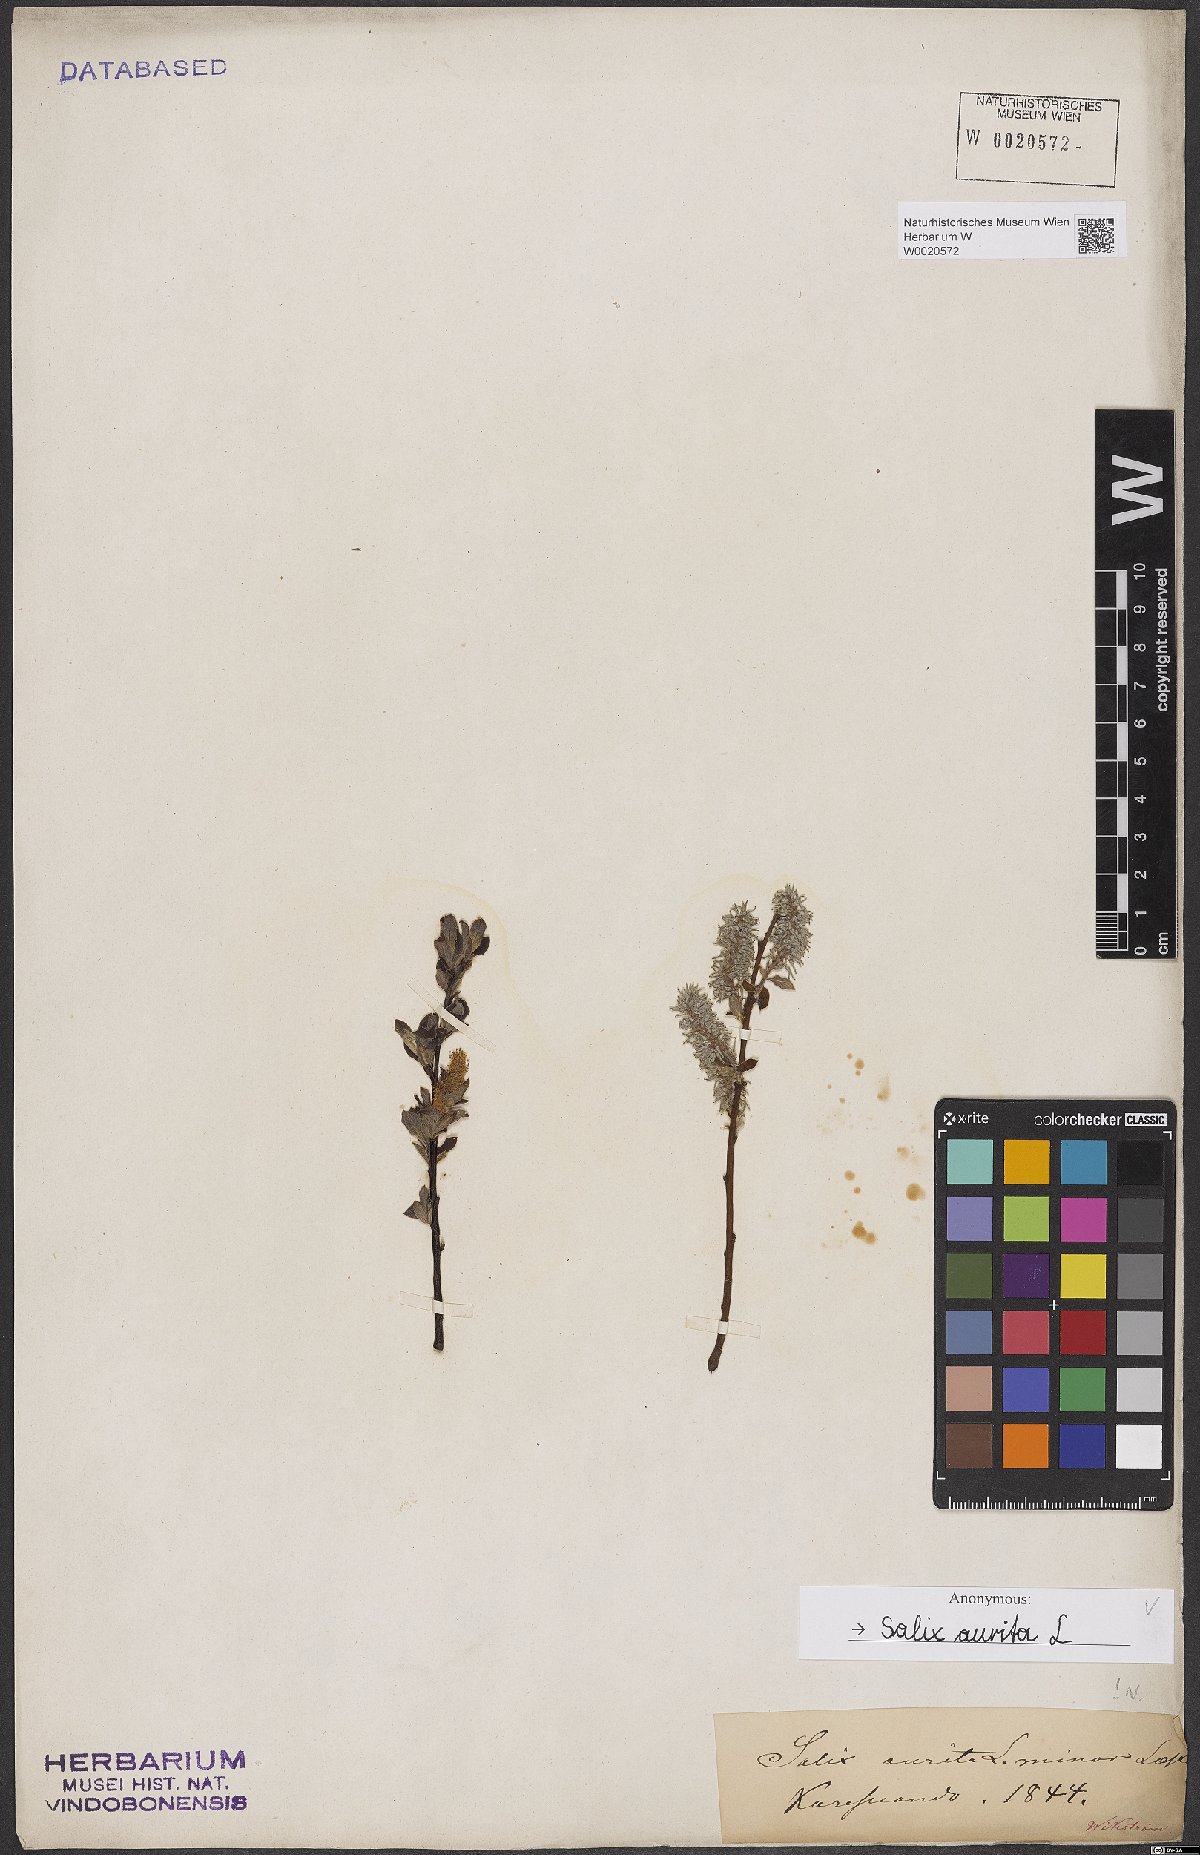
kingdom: Plantae
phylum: Tracheophyta
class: Magnoliopsida
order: Malpighiales
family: Salicaceae
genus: Salix
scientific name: Salix aurita
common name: Eared willow
